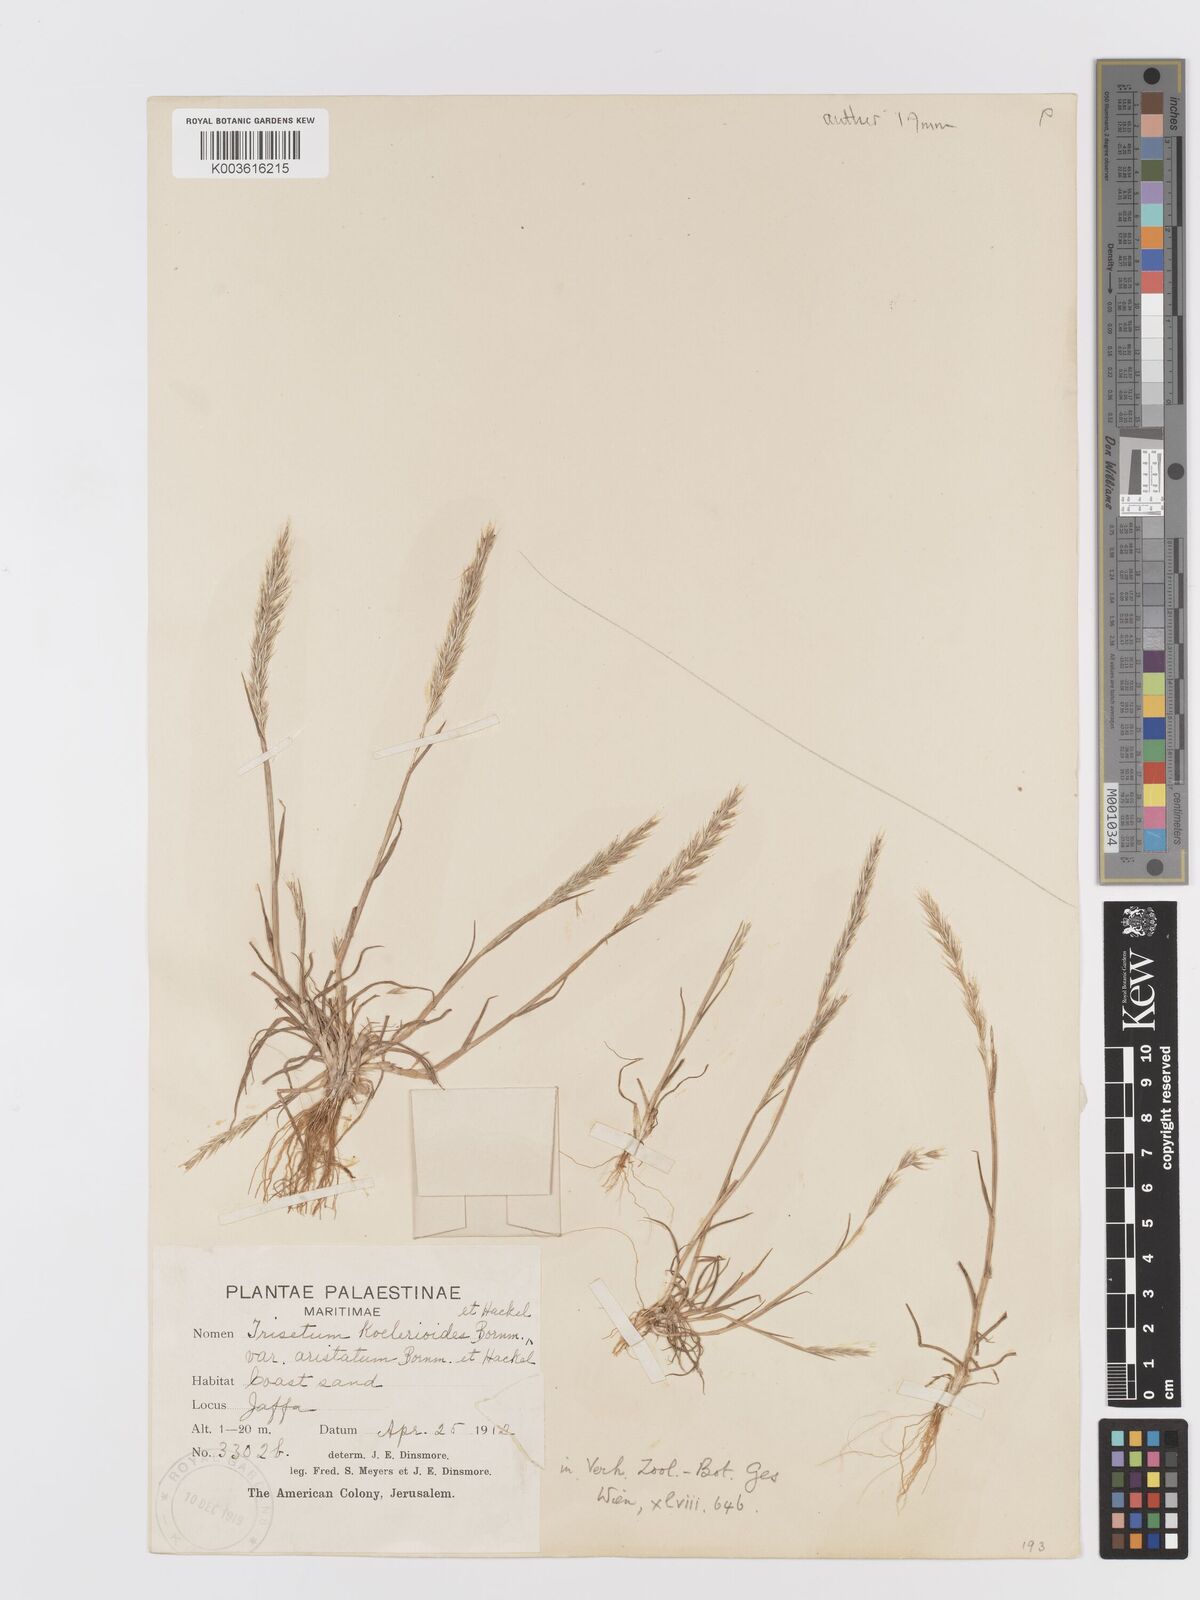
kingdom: Plantae
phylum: Tracheophyta
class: Liliopsida
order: Poales
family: Poaceae
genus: Trisetaria
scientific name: Trisetaria koelerioides
